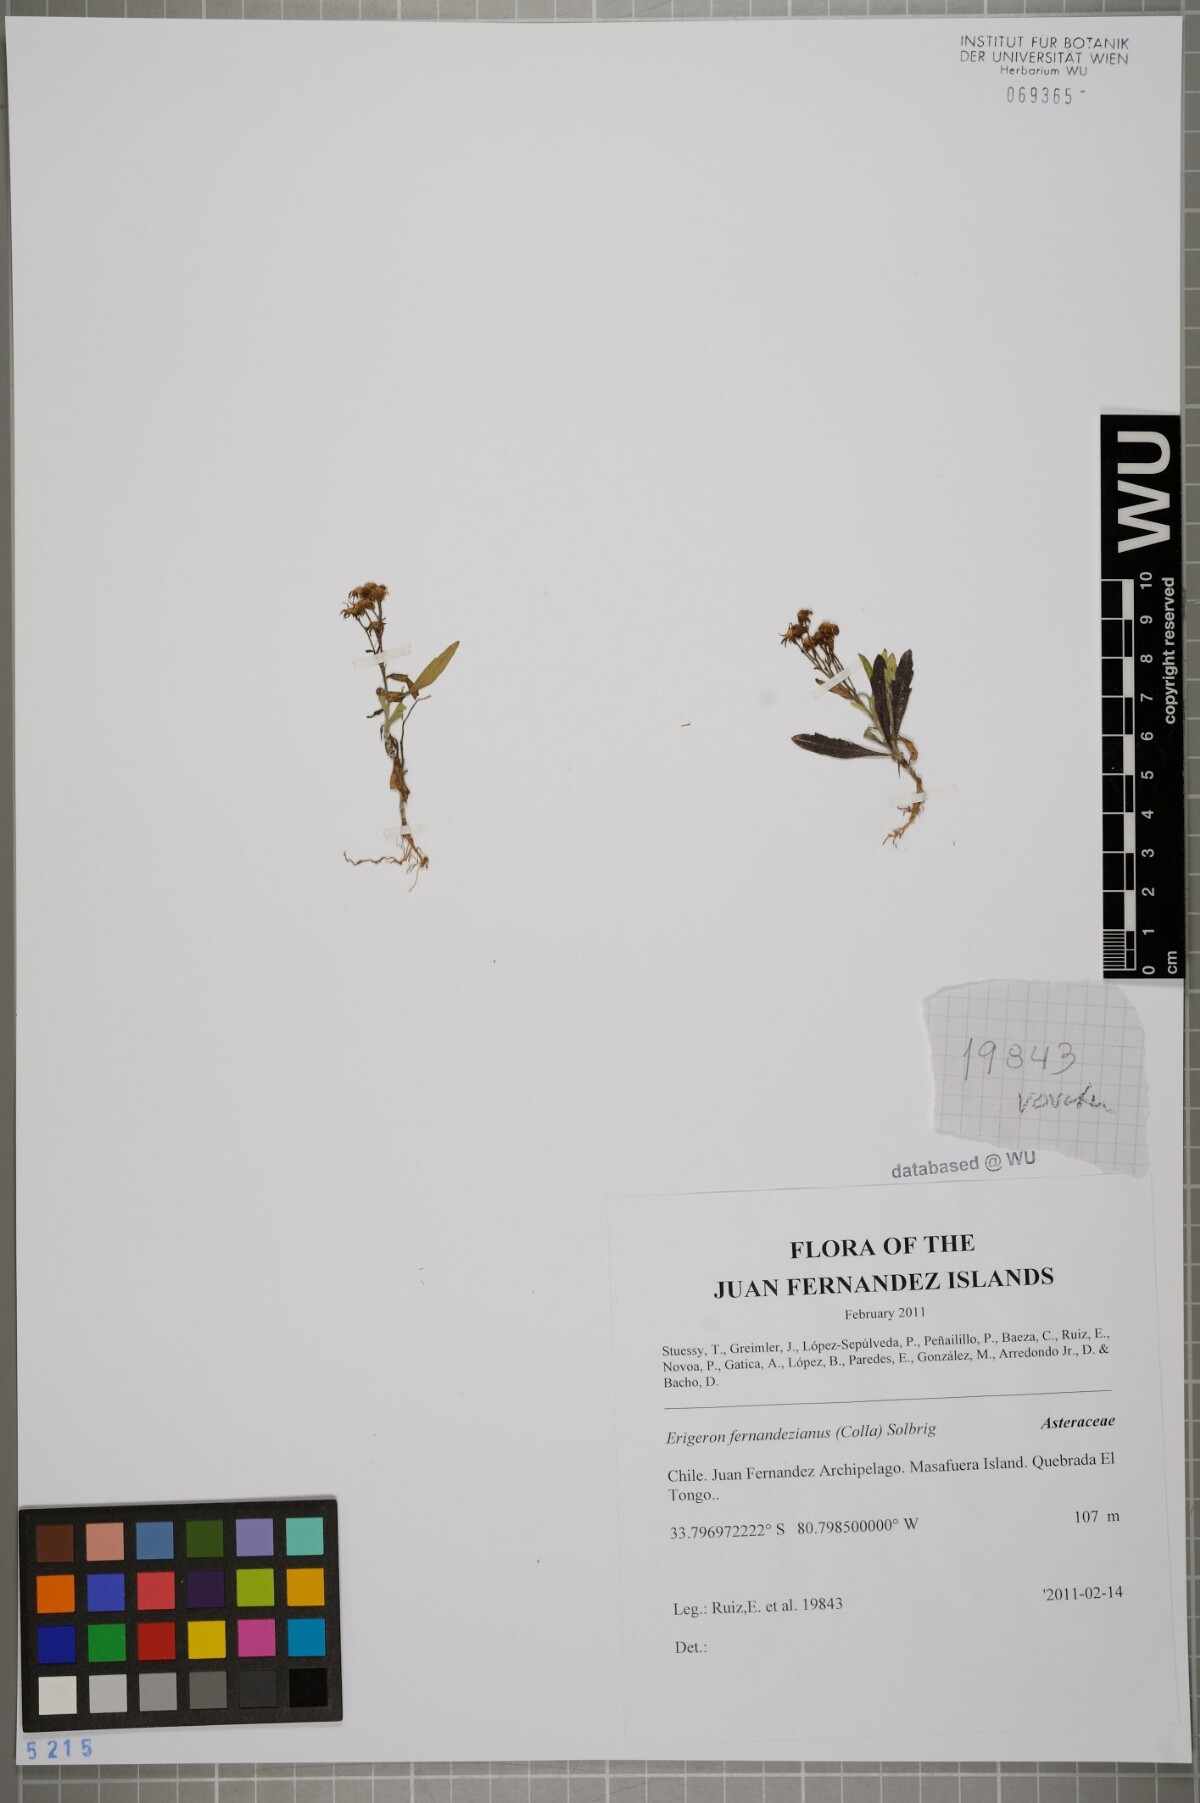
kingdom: Plantae
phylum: Tracheophyta
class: Magnoliopsida
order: Asterales
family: Asteraceae
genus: Erigeron
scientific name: Erigeron fernandezianus
